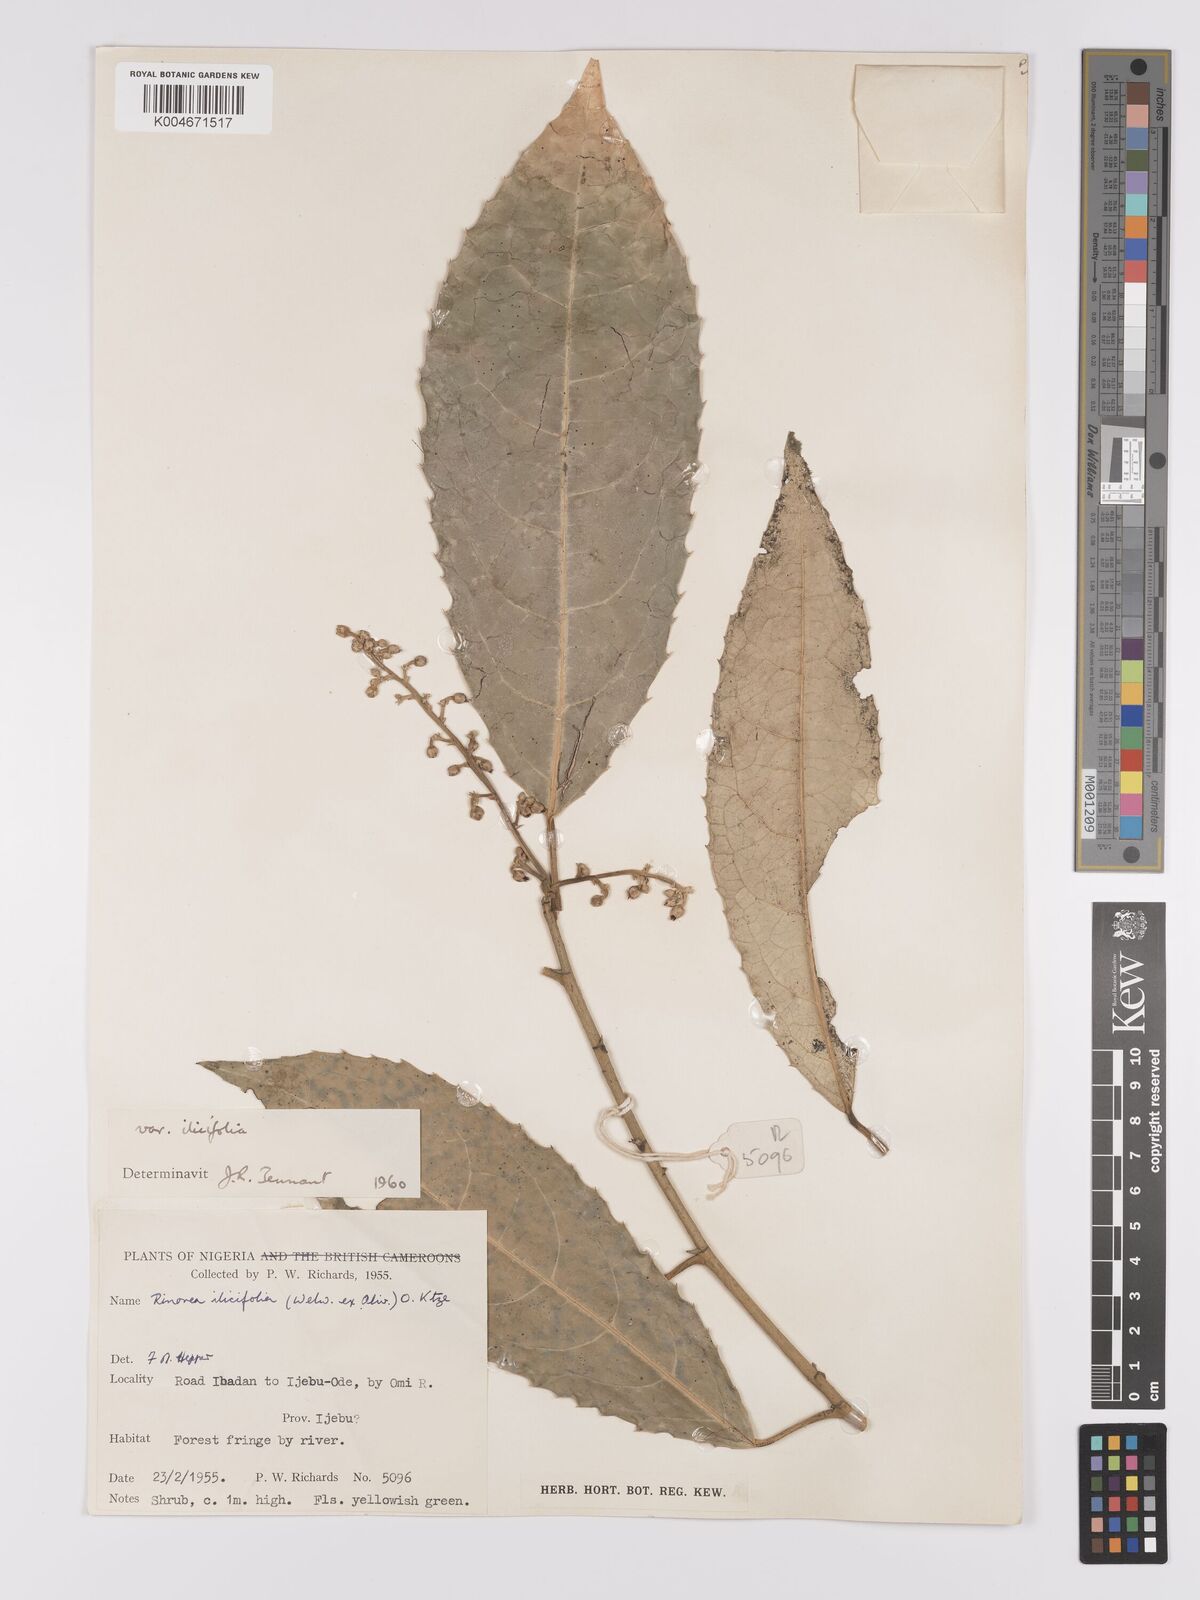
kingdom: Plantae
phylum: Tracheophyta
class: Magnoliopsida
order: Malpighiales
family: Violaceae
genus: Rinorea
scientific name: Rinorea ilicifolia
